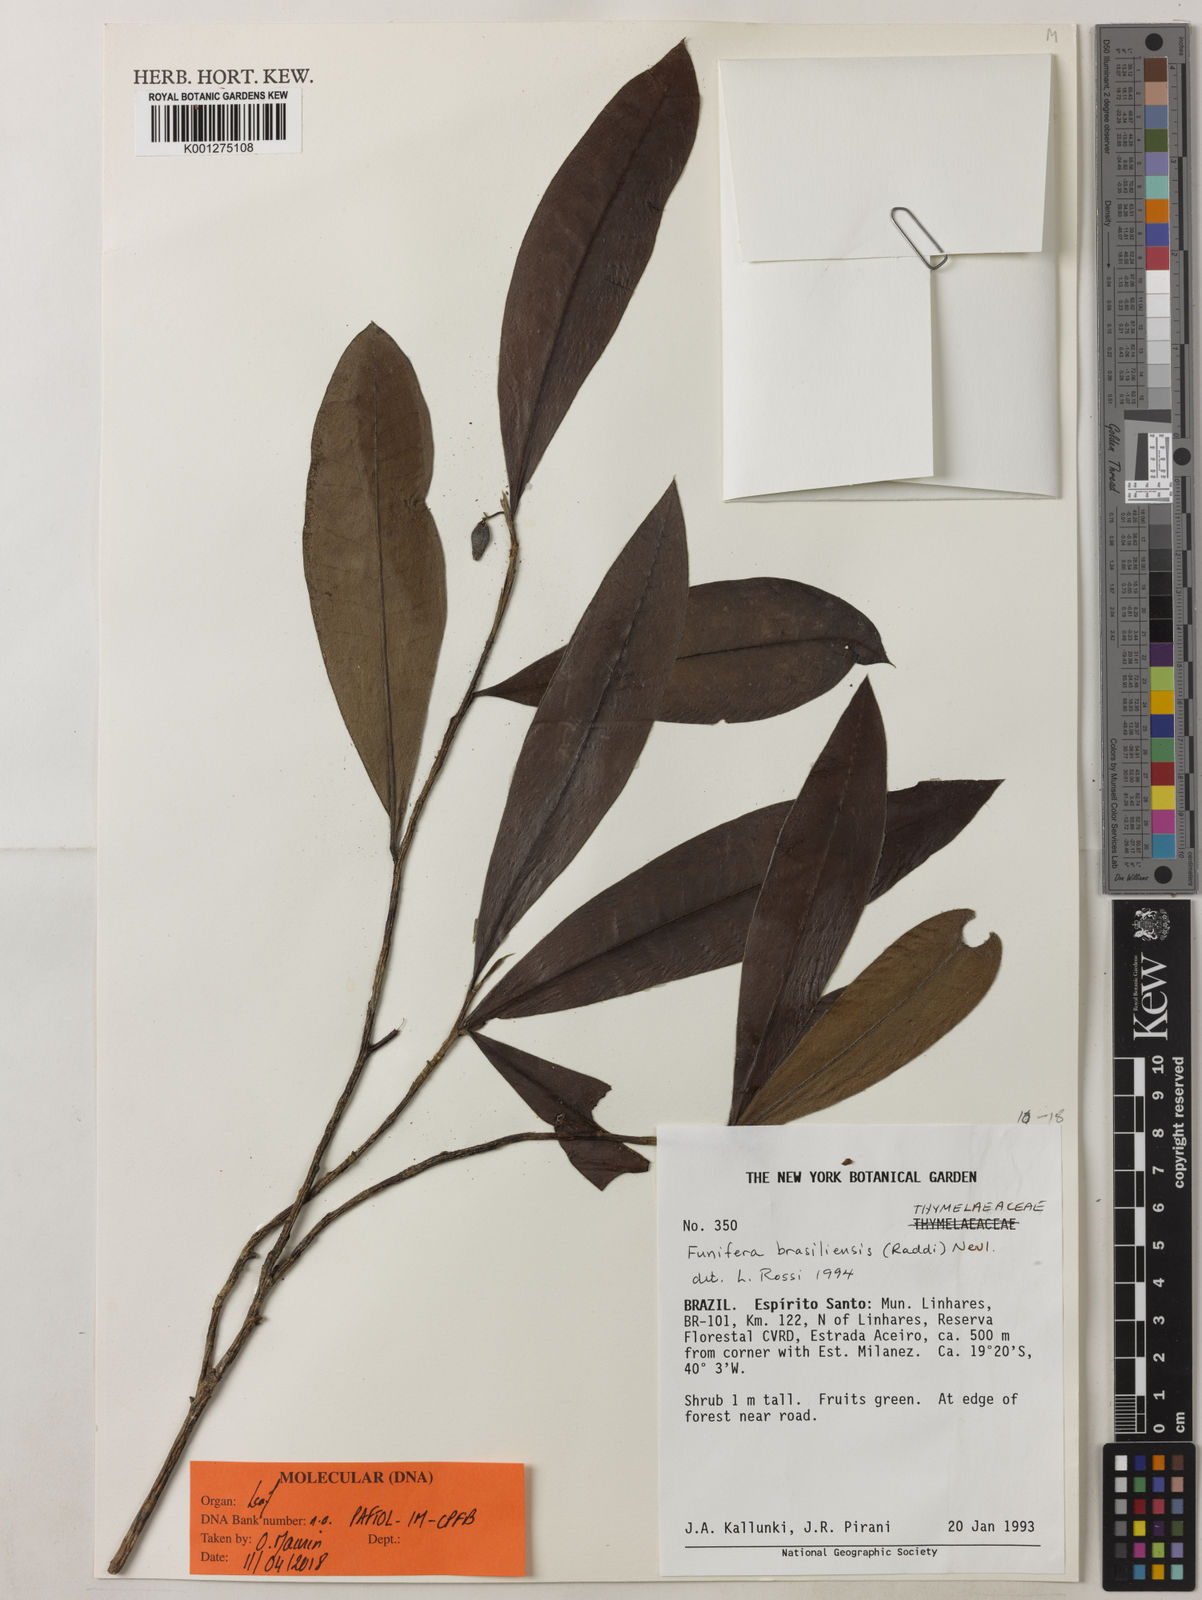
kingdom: Plantae
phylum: Tracheophyta
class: Magnoliopsida
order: Malvales
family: Thymelaeaceae
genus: Funifera
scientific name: Funifera brasiliensis
